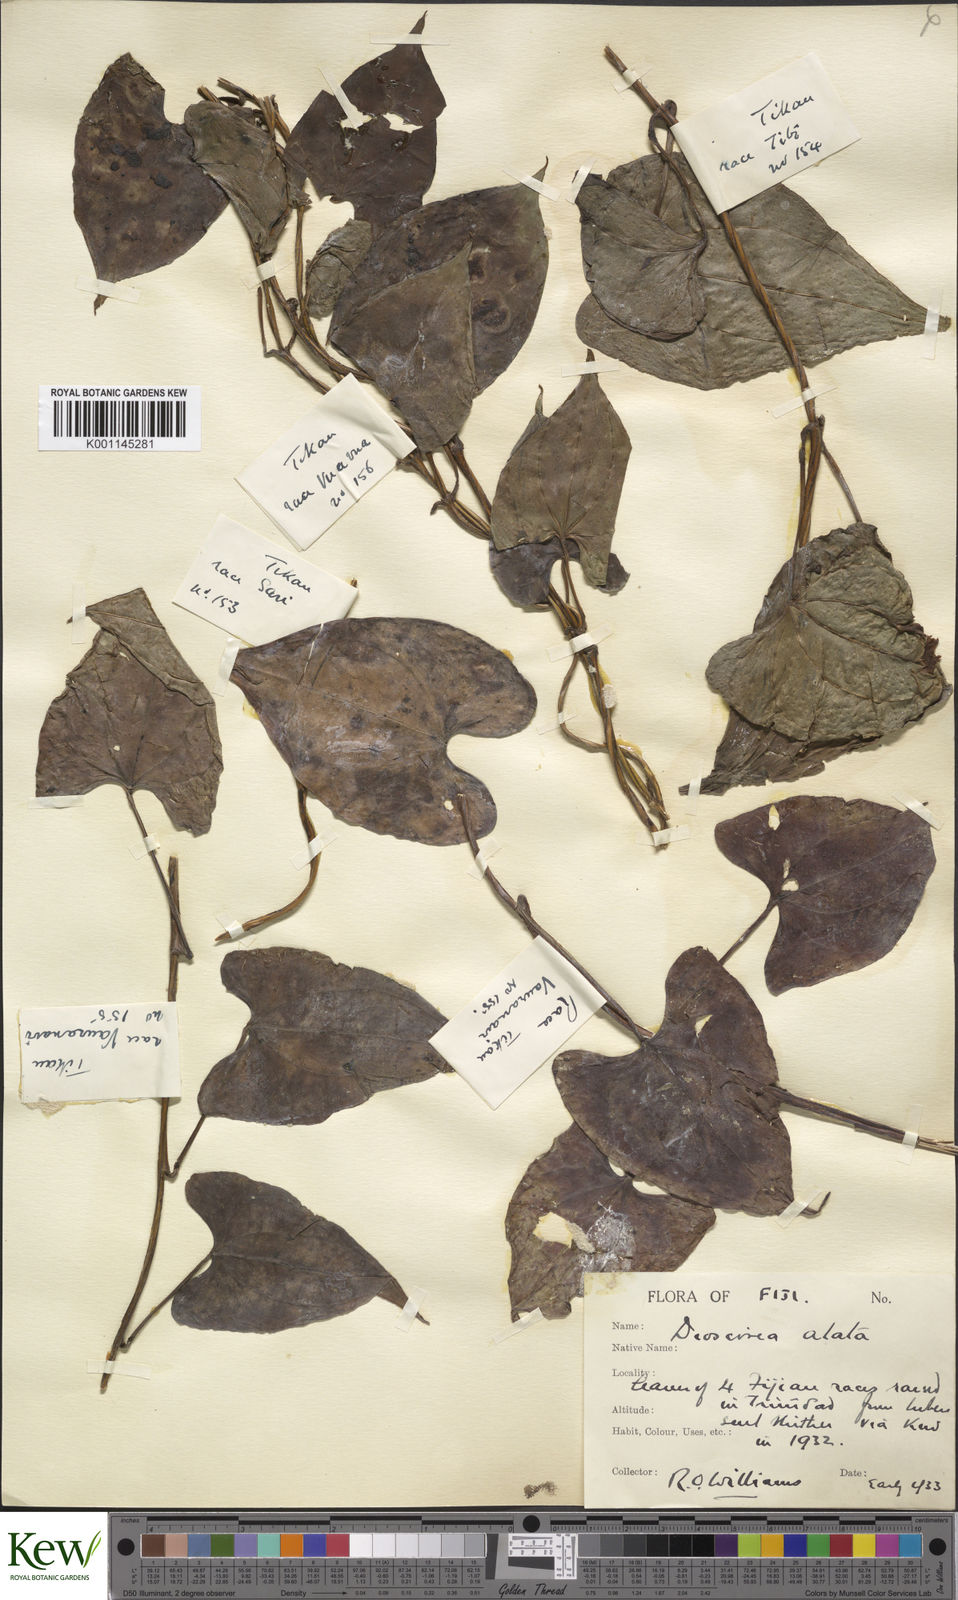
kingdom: Plantae
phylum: Tracheophyta
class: Liliopsida
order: Dioscoreales
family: Dioscoreaceae
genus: Dioscorea
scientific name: Dioscorea alata
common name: Water yam
